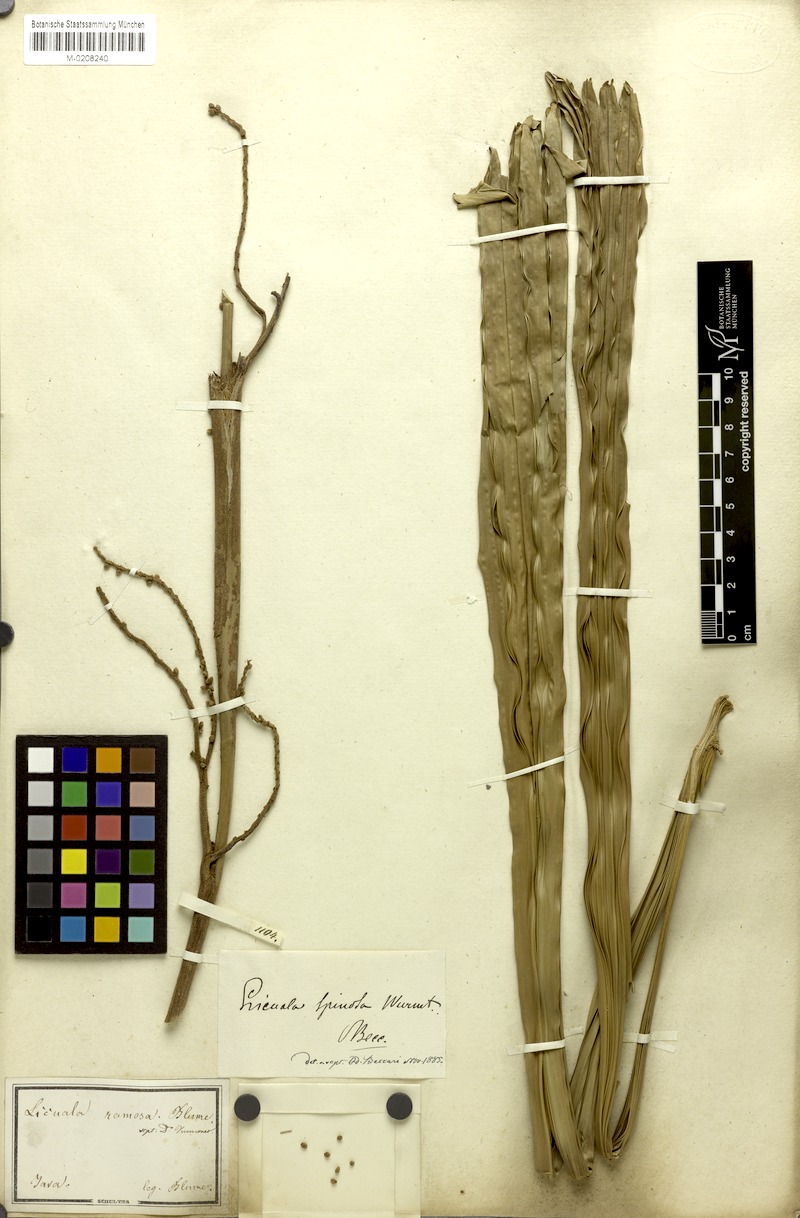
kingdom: Plantae
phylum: Tracheophyta
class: Liliopsida
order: Arecales
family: Arecaceae
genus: Licuala
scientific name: Licuala spinosa
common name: Mangrove fan palm
